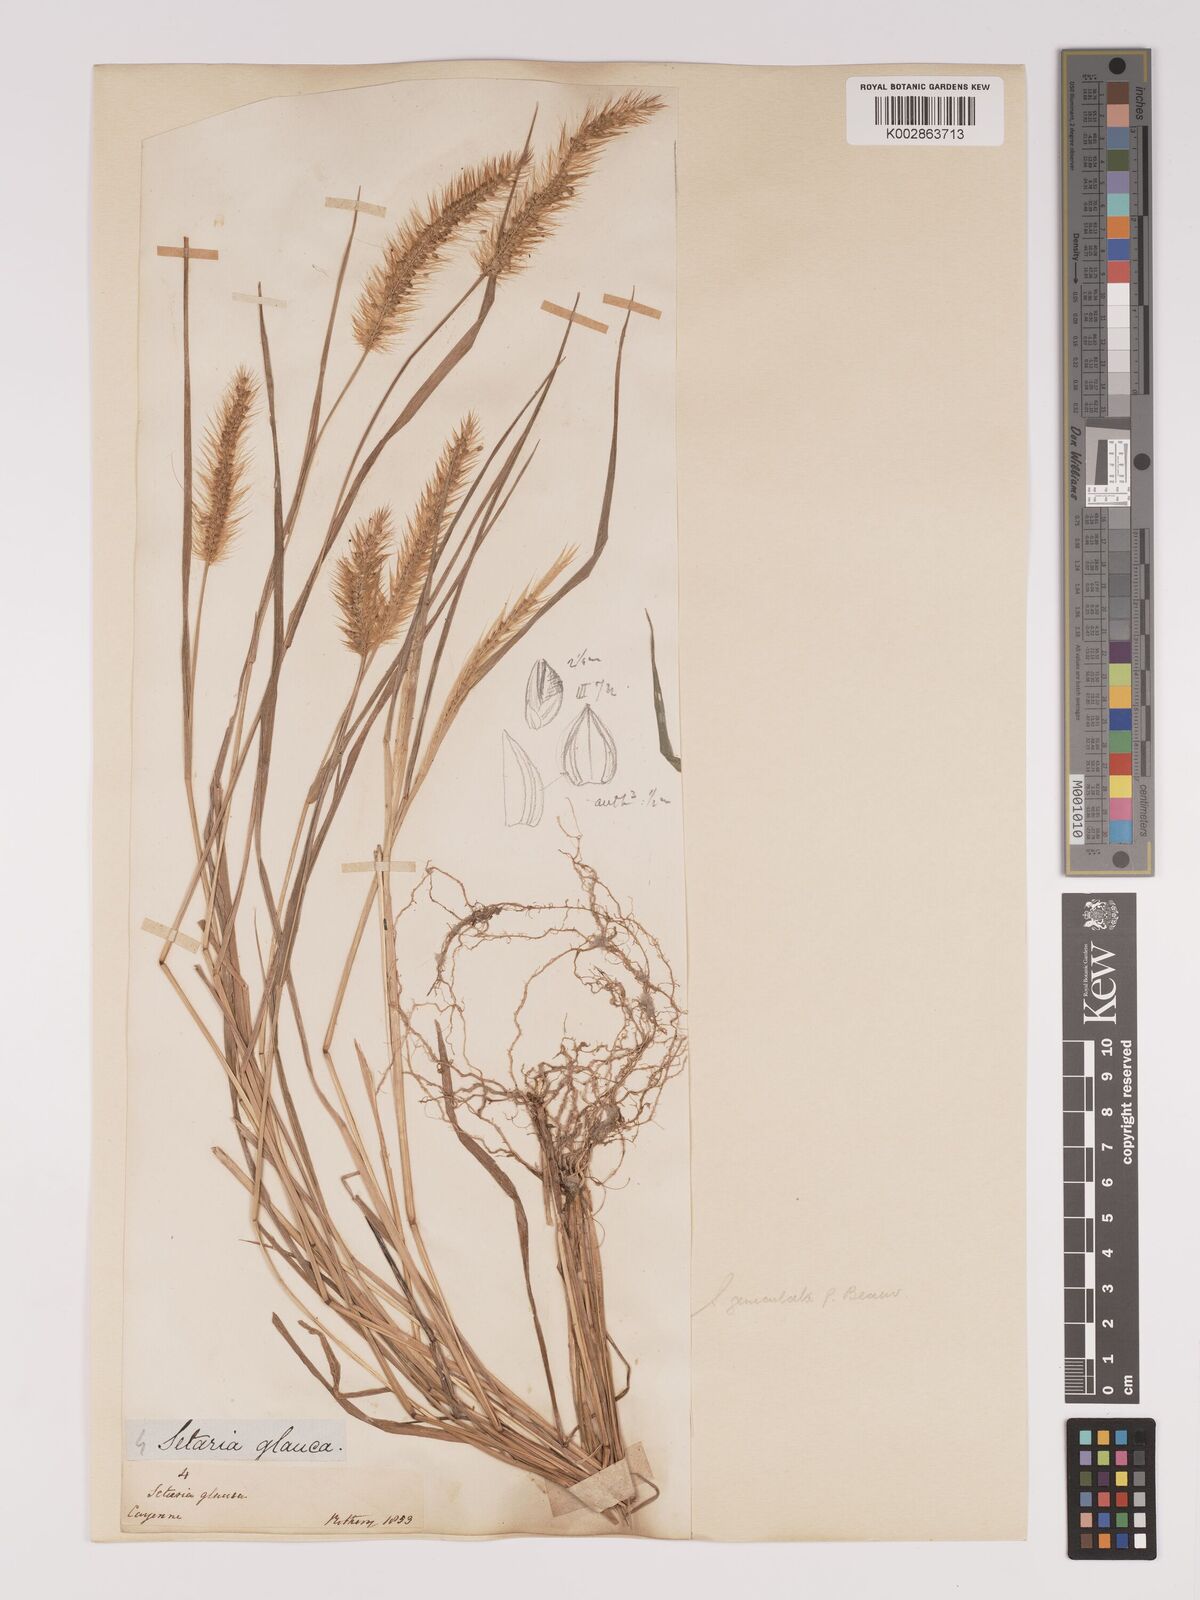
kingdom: Plantae
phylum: Tracheophyta
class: Liliopsida
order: Poales
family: Poaceae
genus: Setaria
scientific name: Setaria parviflora
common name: Knotroot bristle-grass
